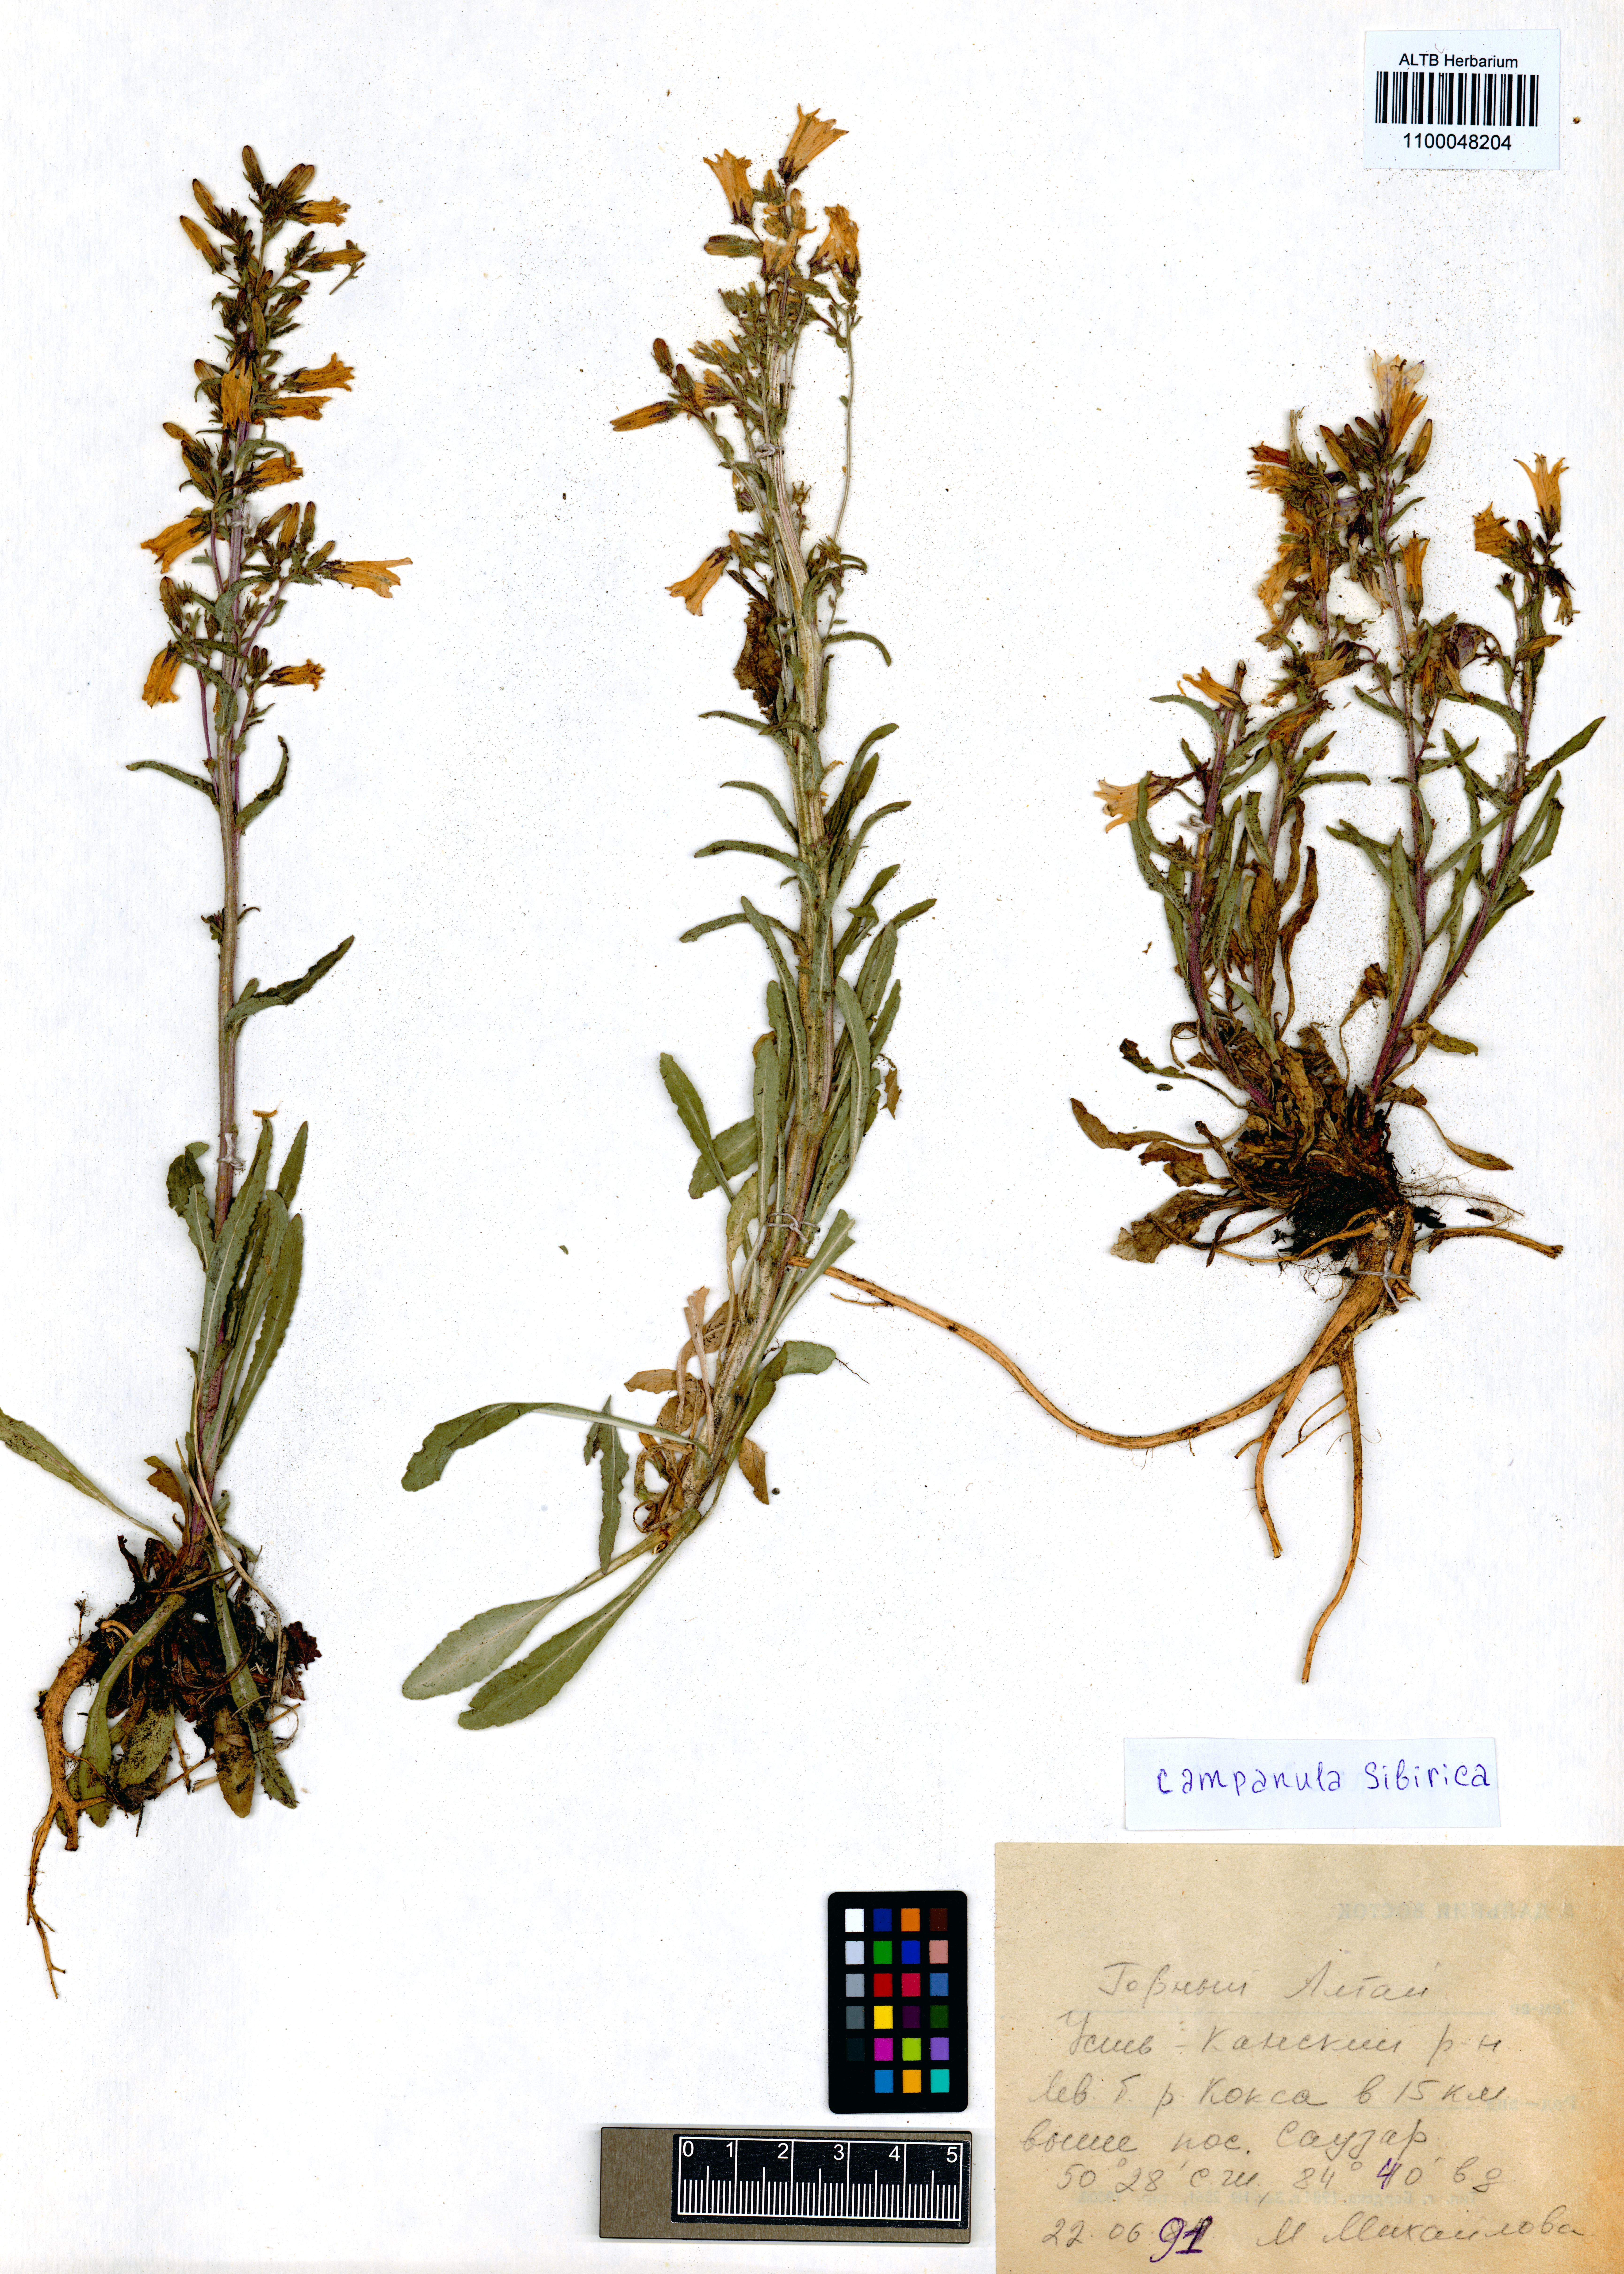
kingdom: Plantae
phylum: Tracheophyta
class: Magnoliopsida
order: Asterales
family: Campanulaceae
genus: Campanula
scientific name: Campanula sibirica
